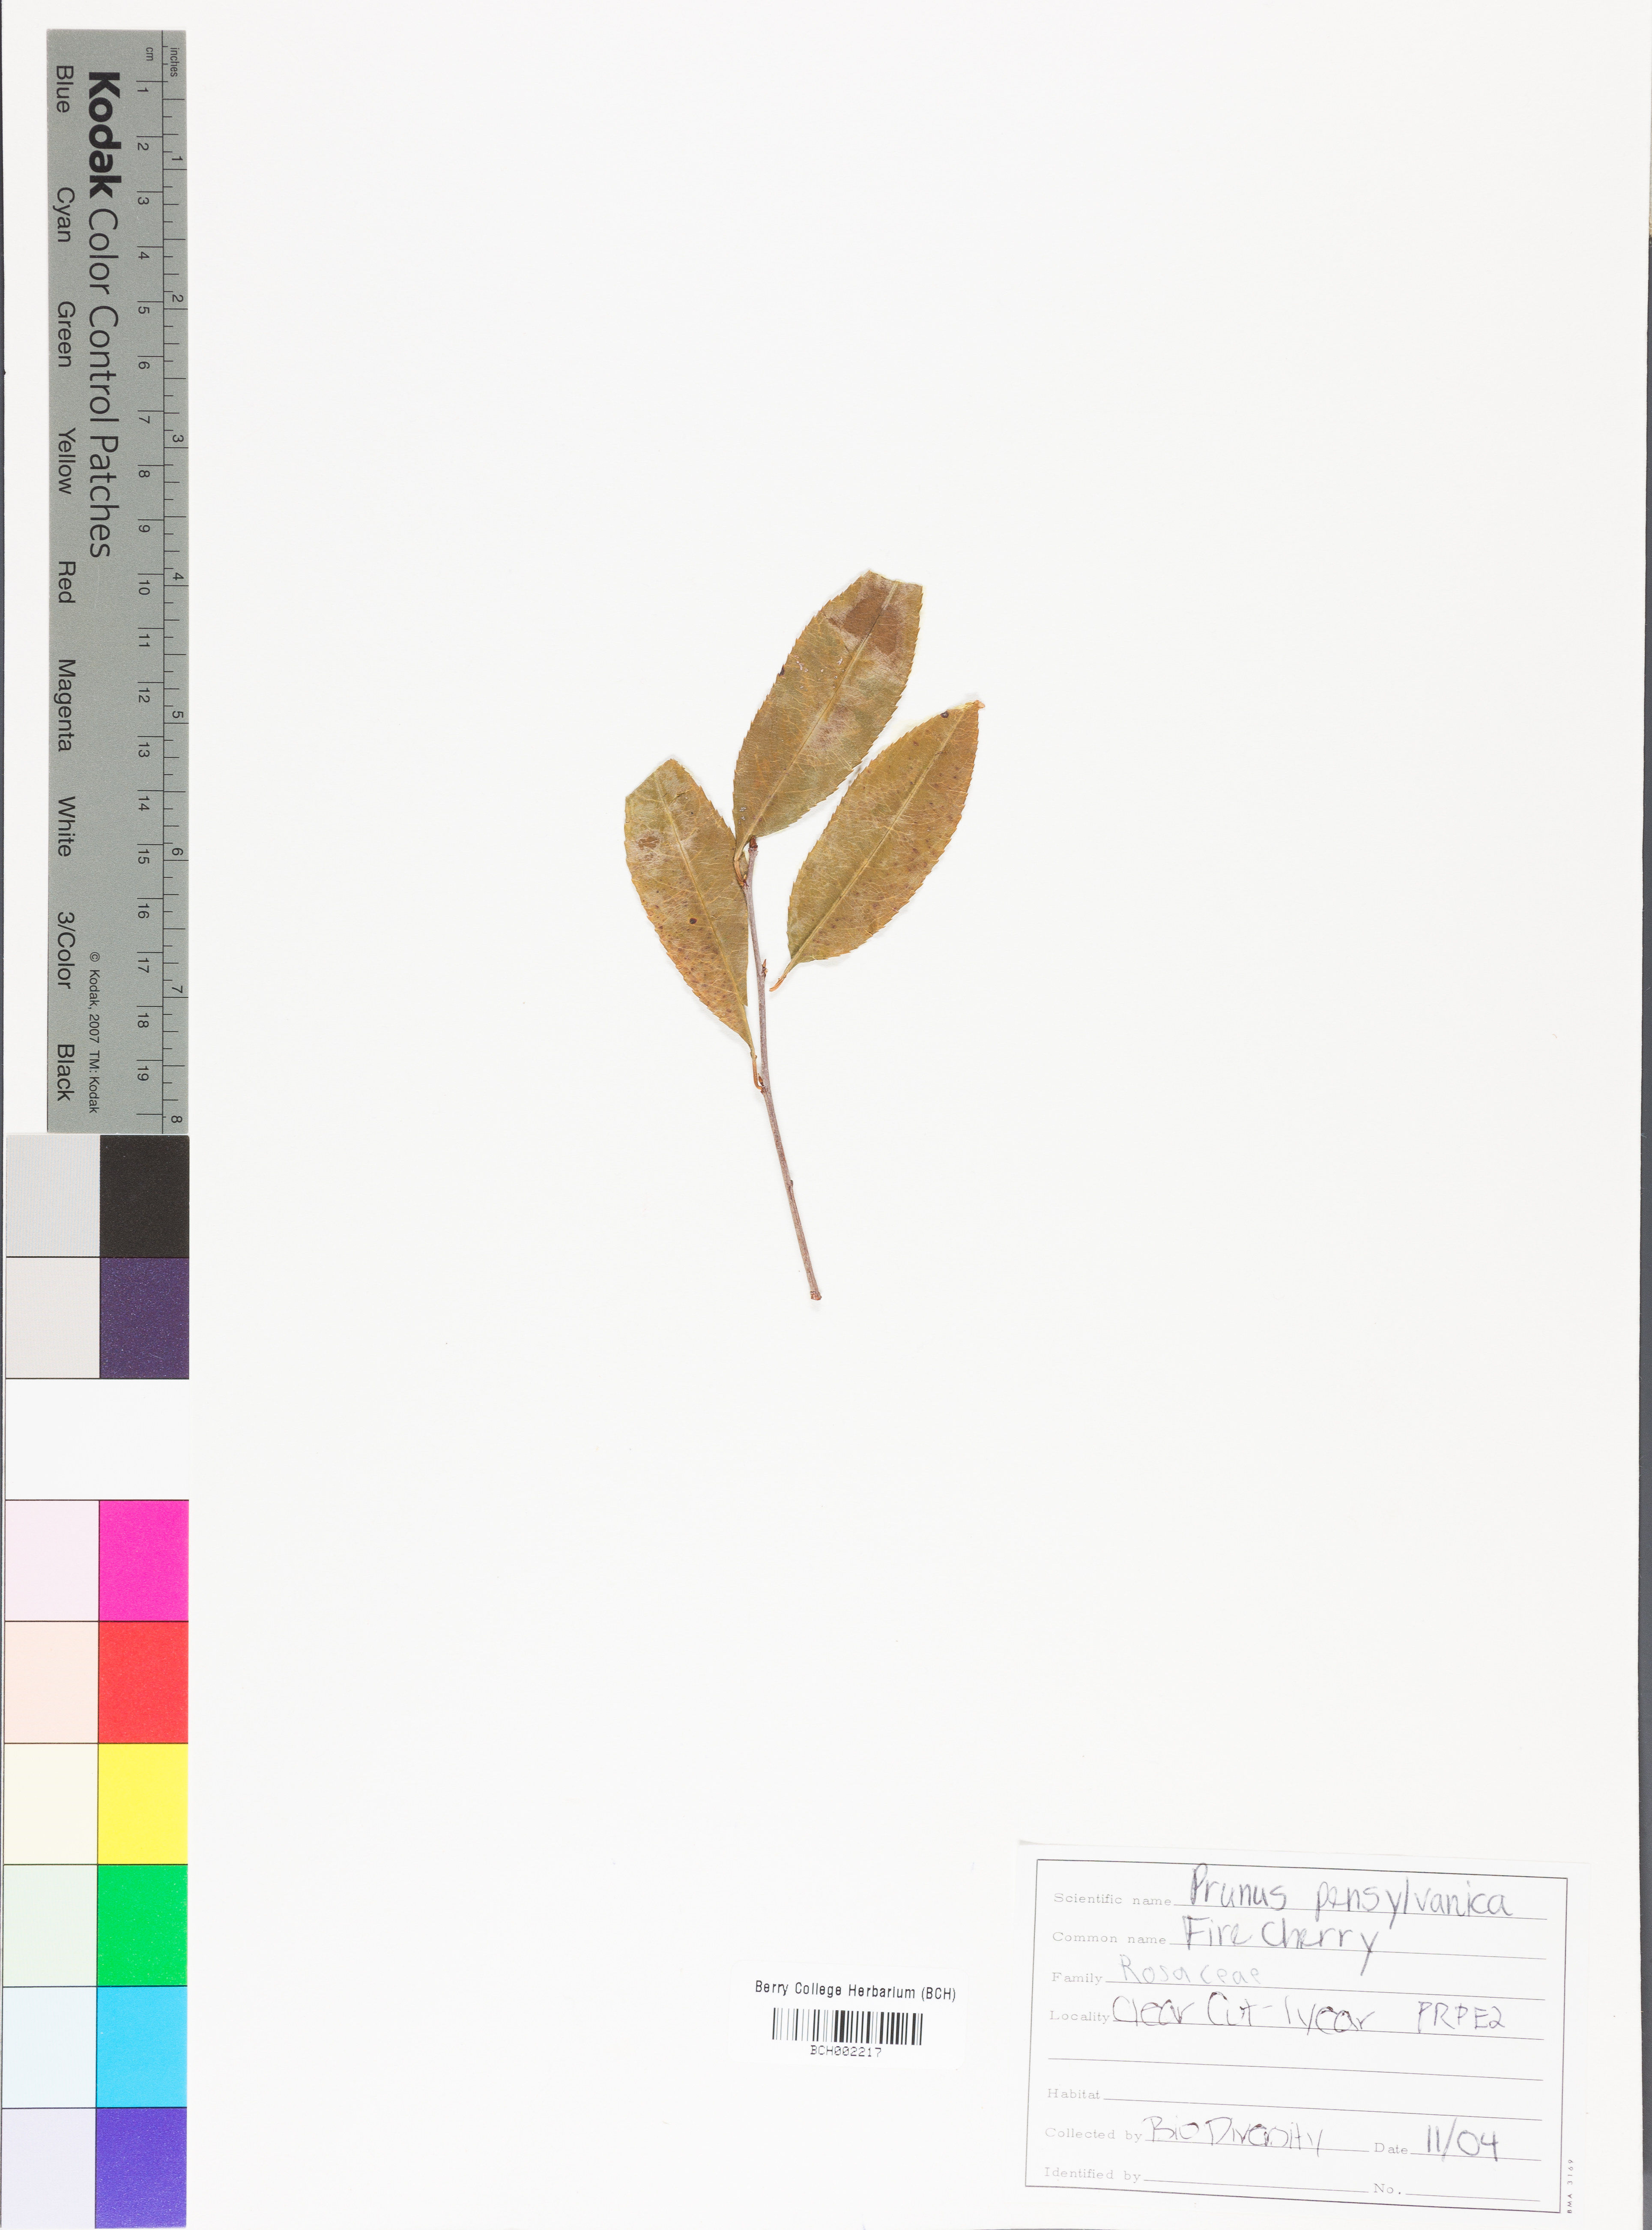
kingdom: Plantae
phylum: Tracheophyta
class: Magnoliopsida
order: Rosales
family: Rosaceae
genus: Prunus
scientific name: Prunus pensylvanica
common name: Pin cherry
